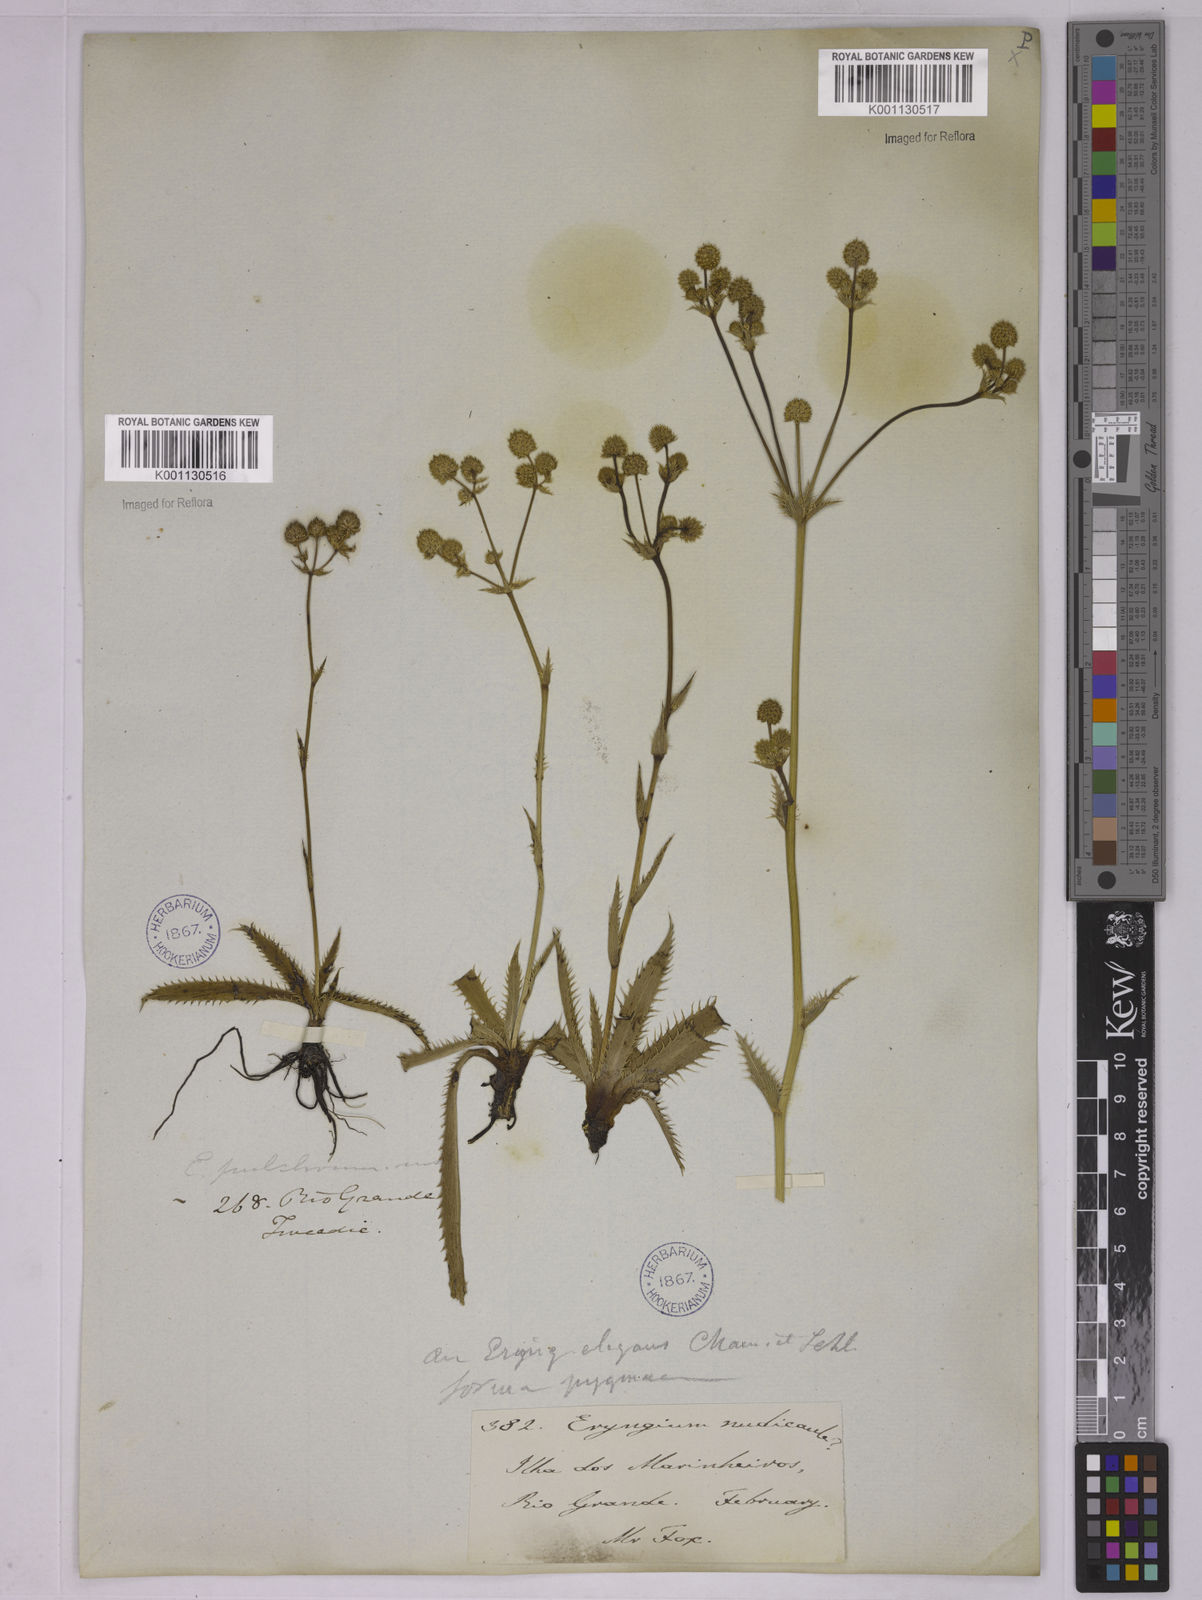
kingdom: Plantae
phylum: Tracheophyta
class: Magnoliopsida
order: Apiales
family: Apiaceae
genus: Eryngium
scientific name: Eryngium elegans
